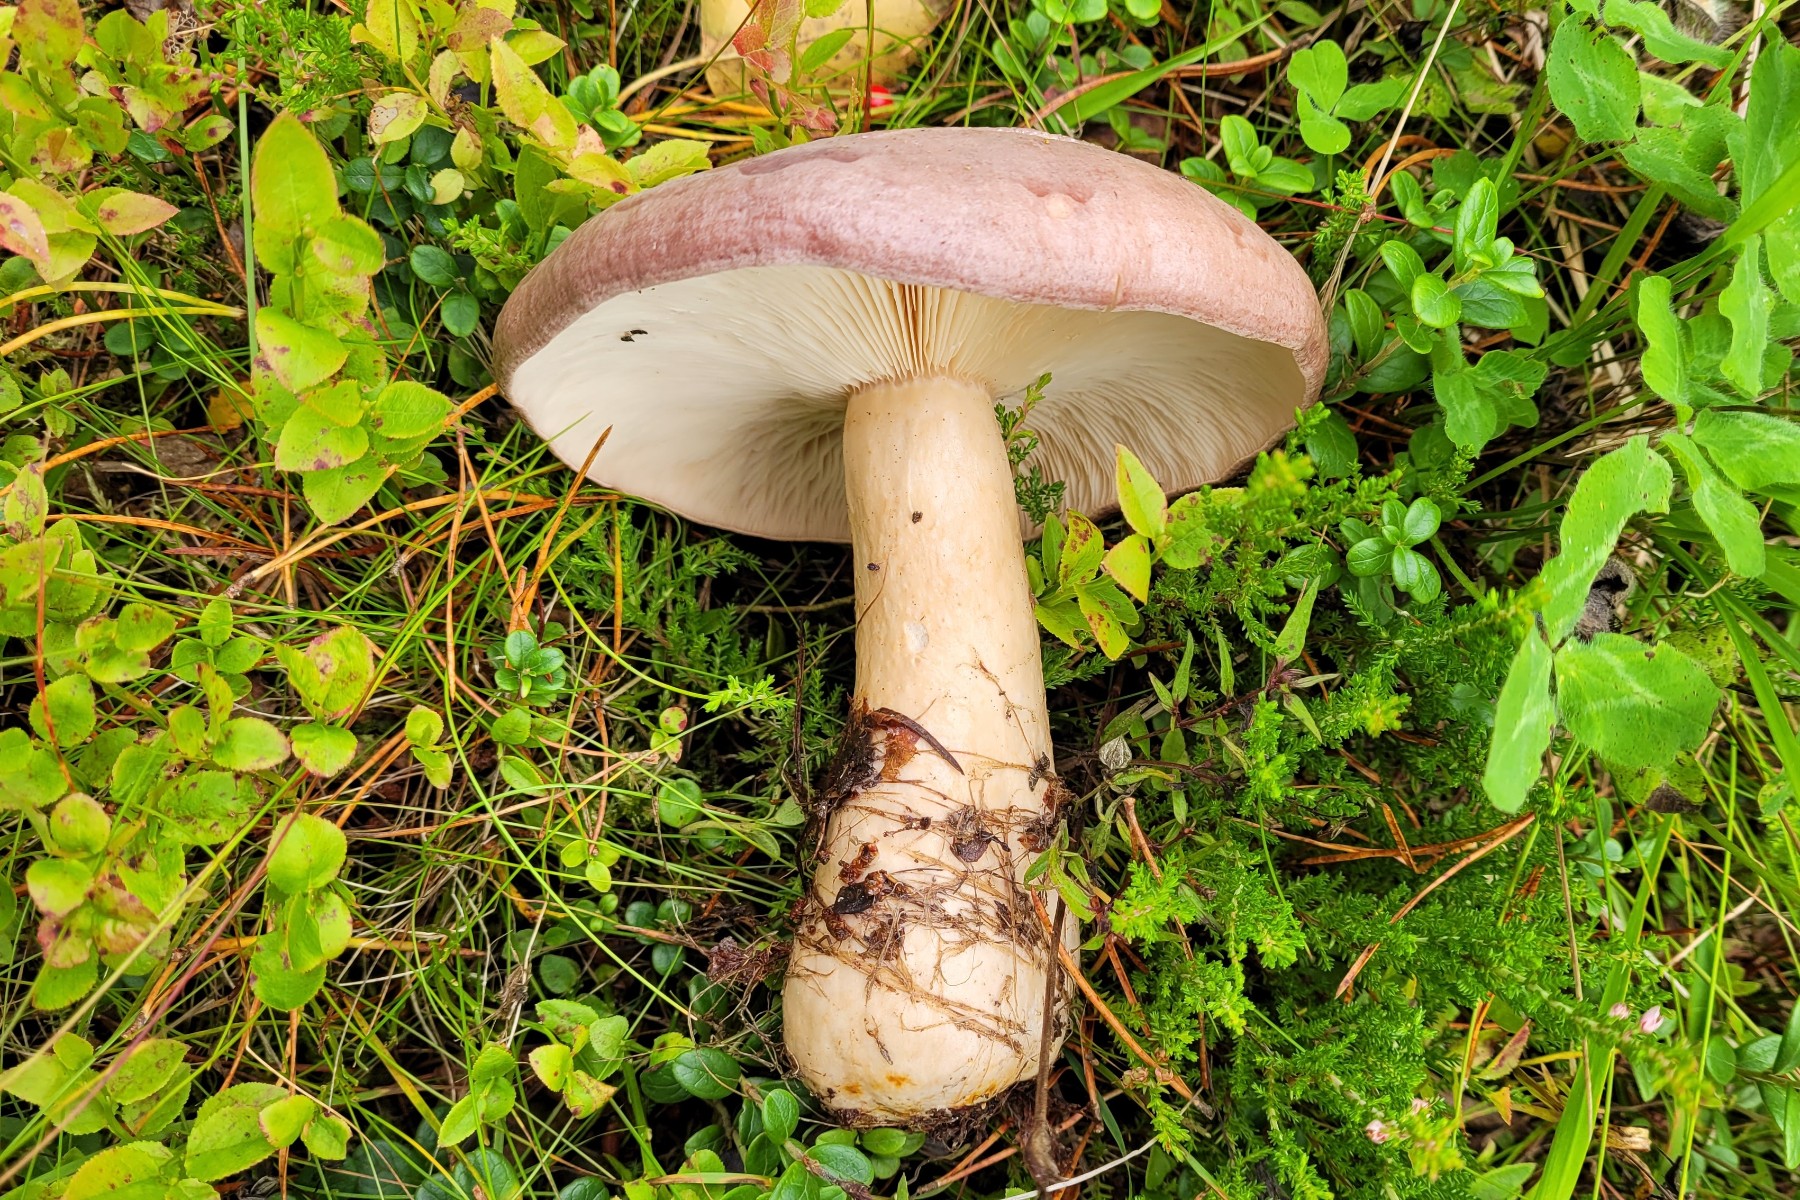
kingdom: Fungi
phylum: Basidiomycota
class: Agaricomycetes
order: Russulales
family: Russulaceae
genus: Lactarius
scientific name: Lactarius trivialis
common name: nordisk mælkehat
